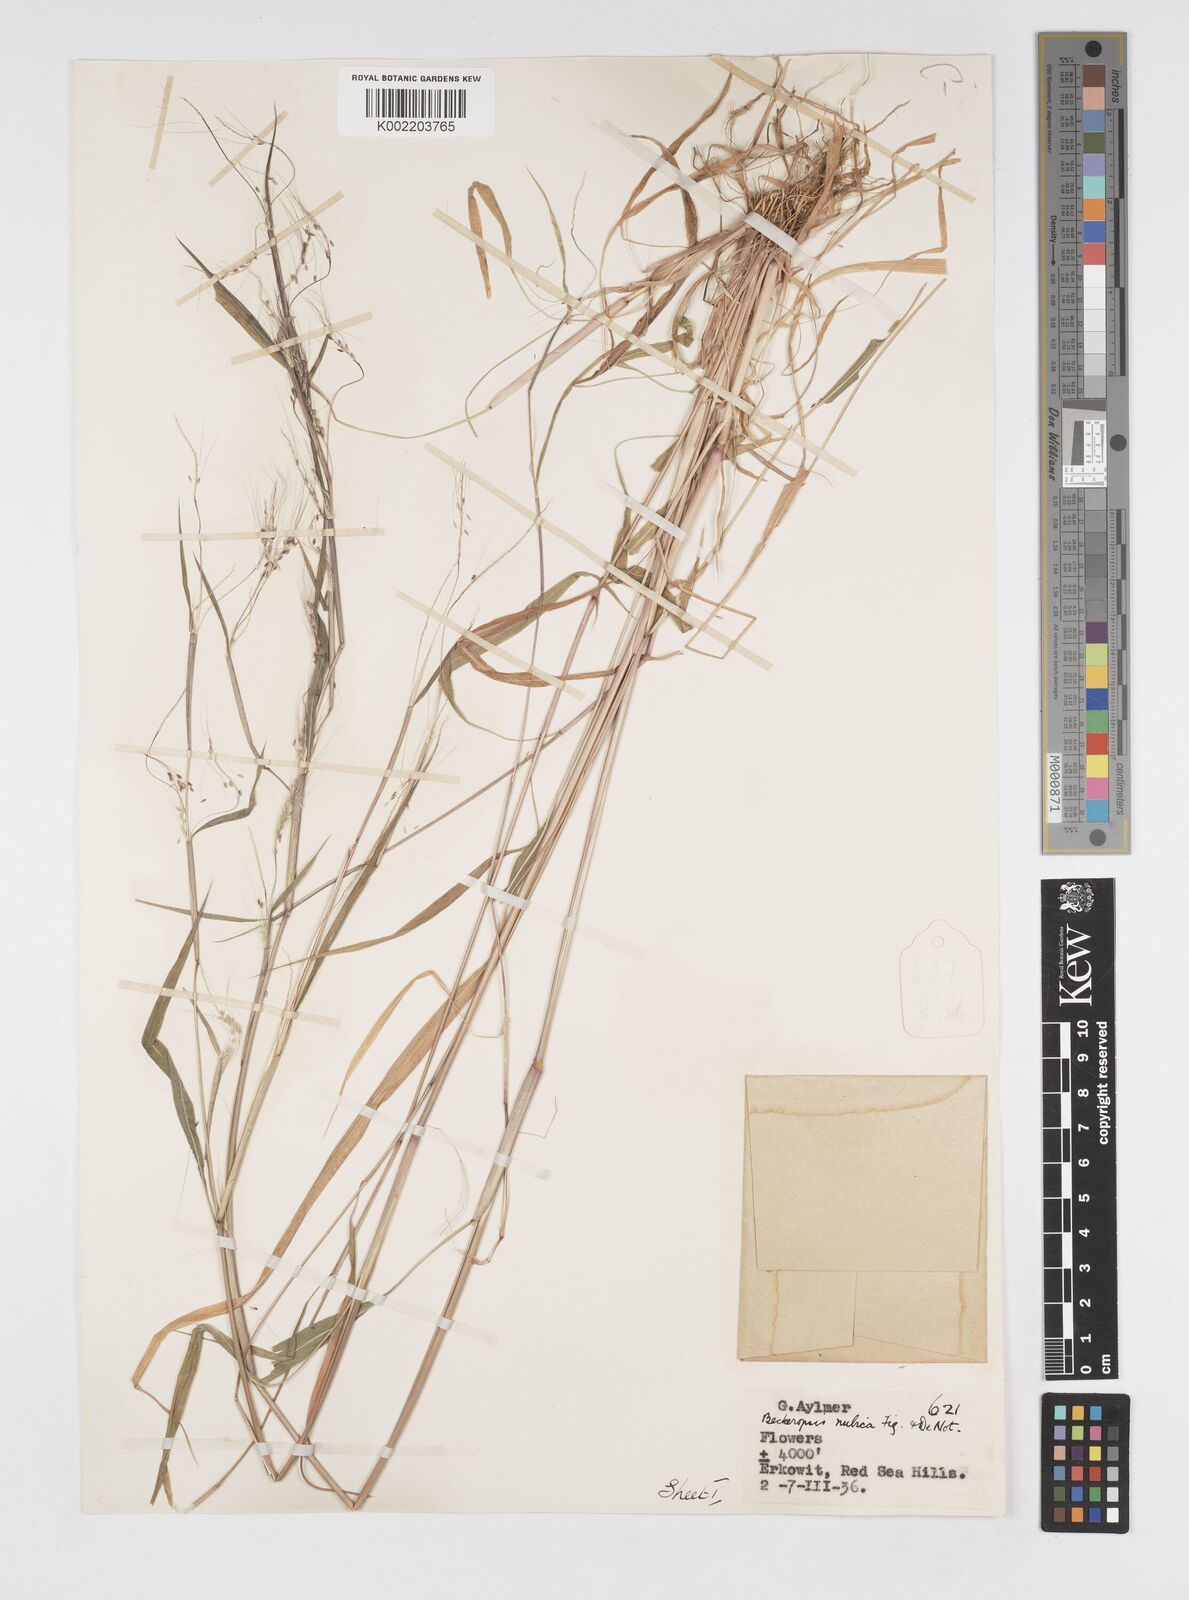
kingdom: Plantae
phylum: Tracheophyta
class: Liliopsida
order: Poales
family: Poaceae
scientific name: Poaceae
